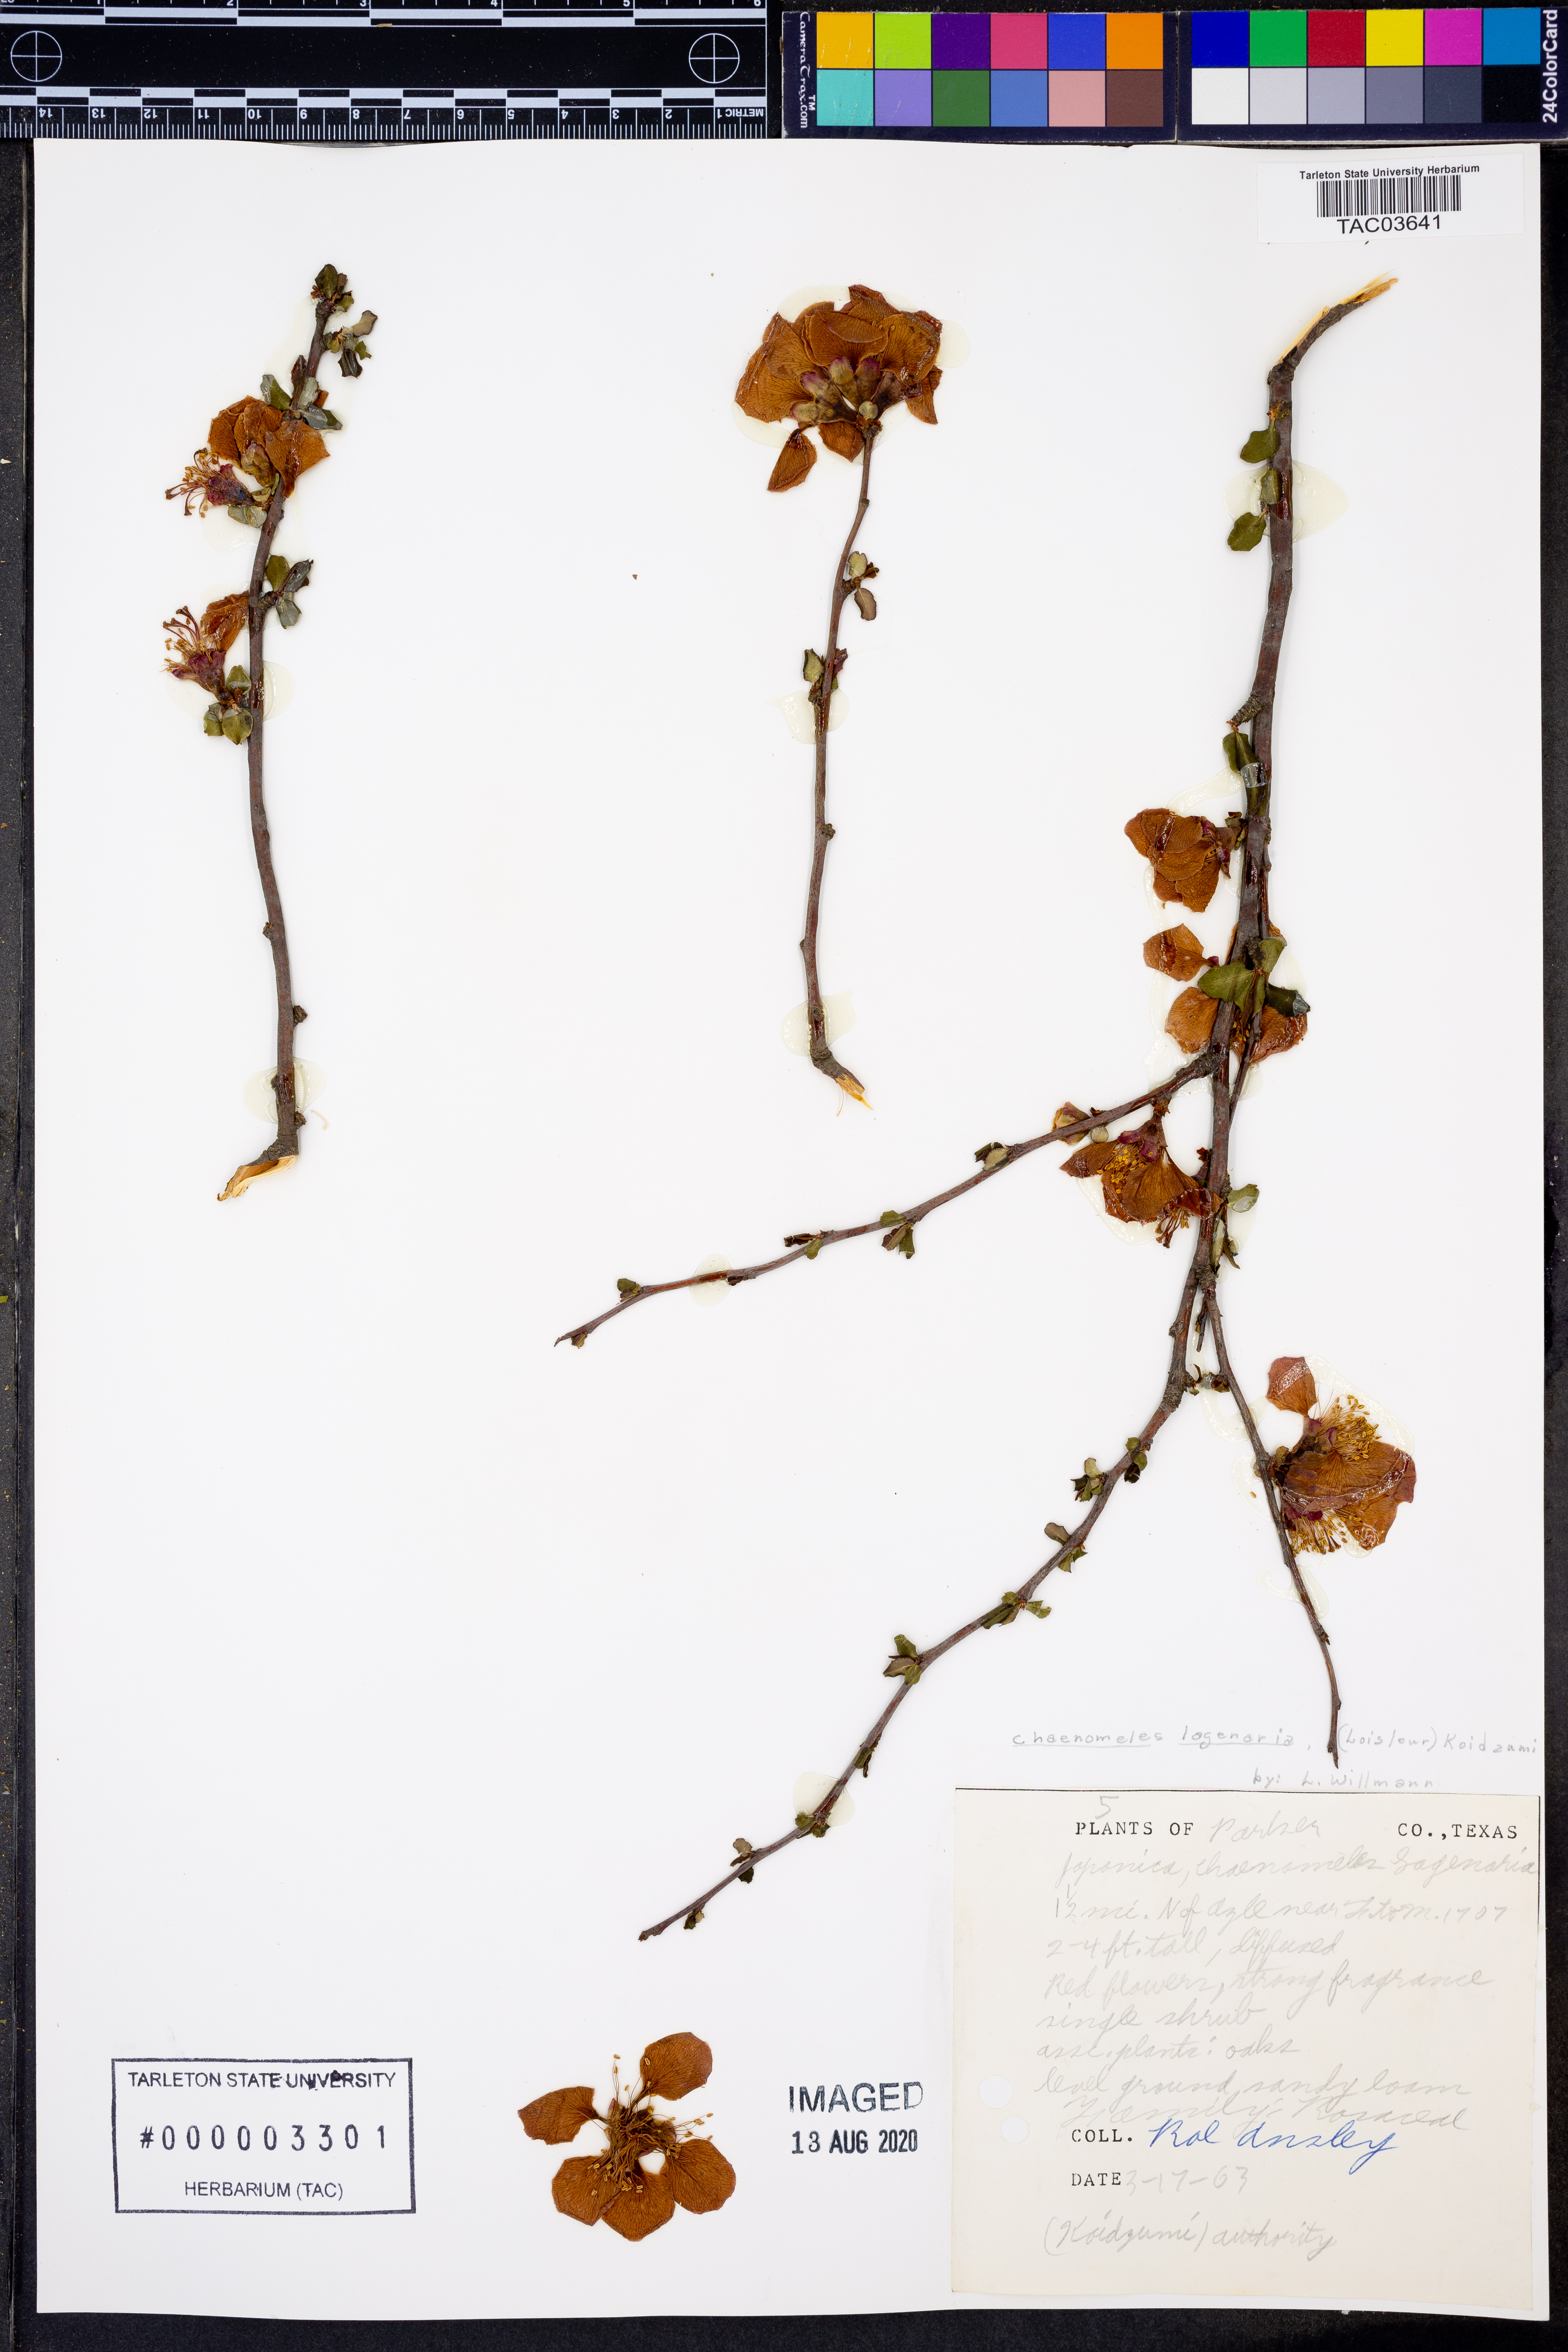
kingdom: Plantae
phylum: Tracheophyta
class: Magnoliopsida
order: Rosales
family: Rosaceae
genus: Chaenomeles
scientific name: Chaenomeles
